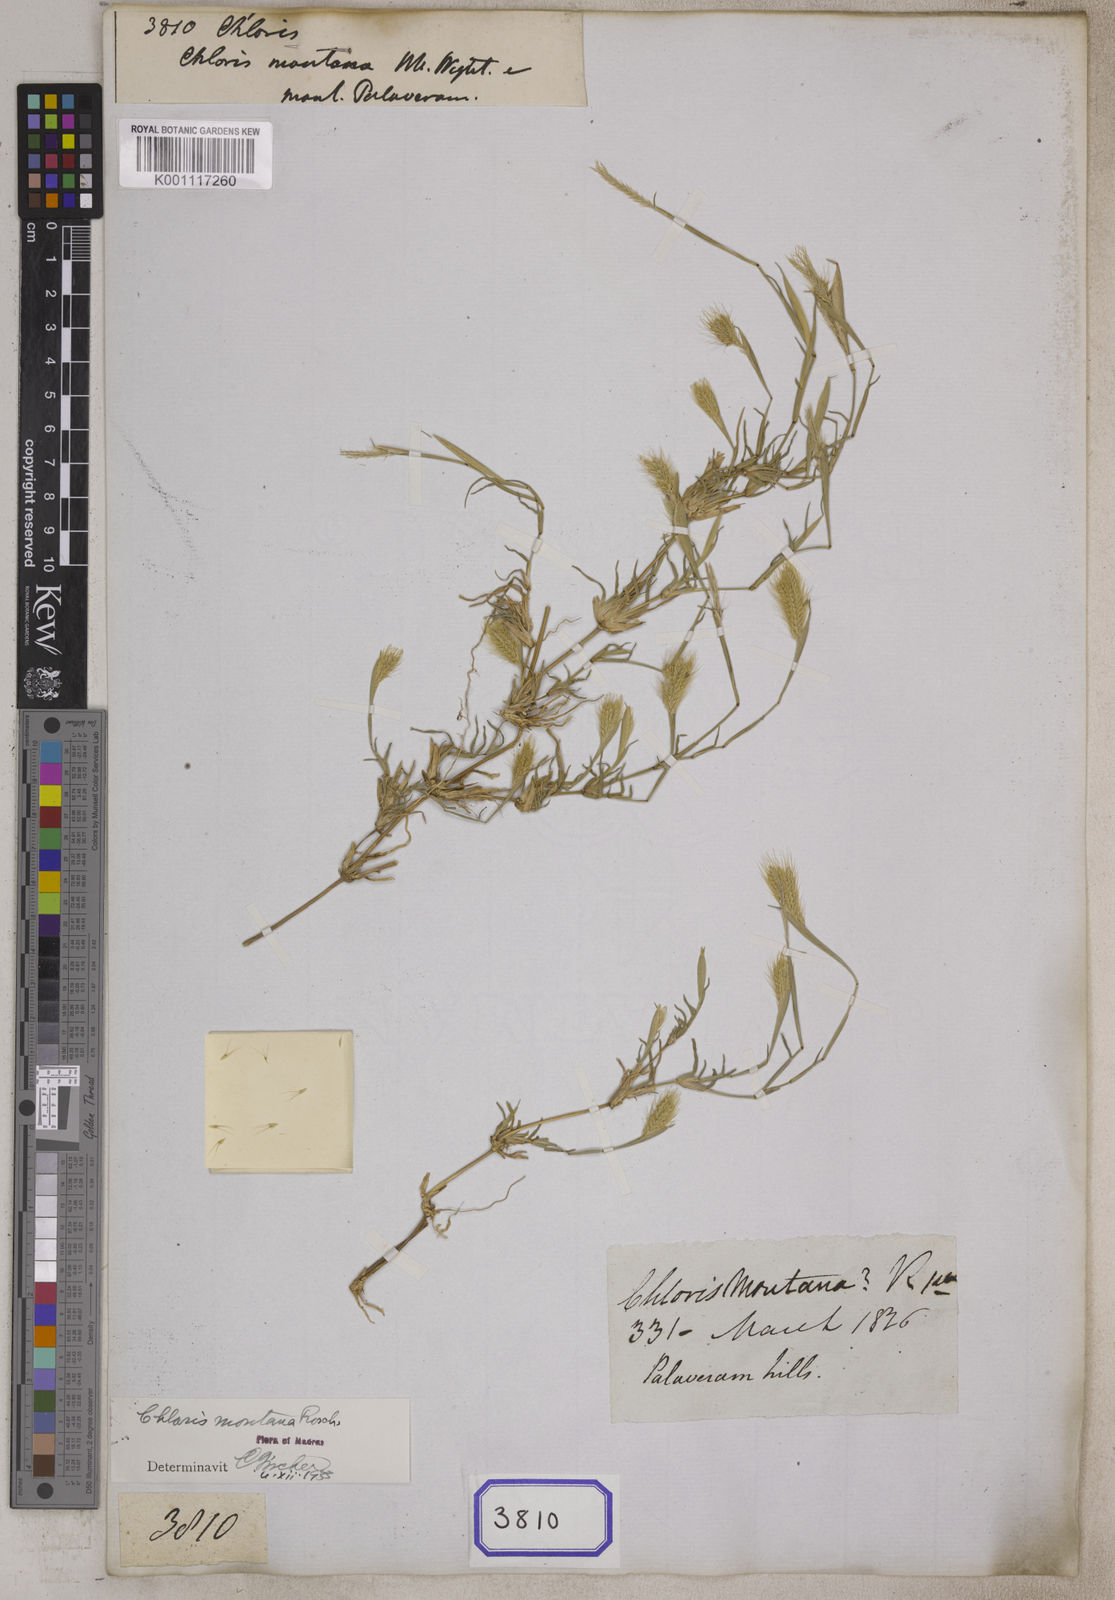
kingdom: Plantae
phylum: Tracheophyta
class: Liliopsida
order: Poales
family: Poaceae
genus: Chloris
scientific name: Chloris
